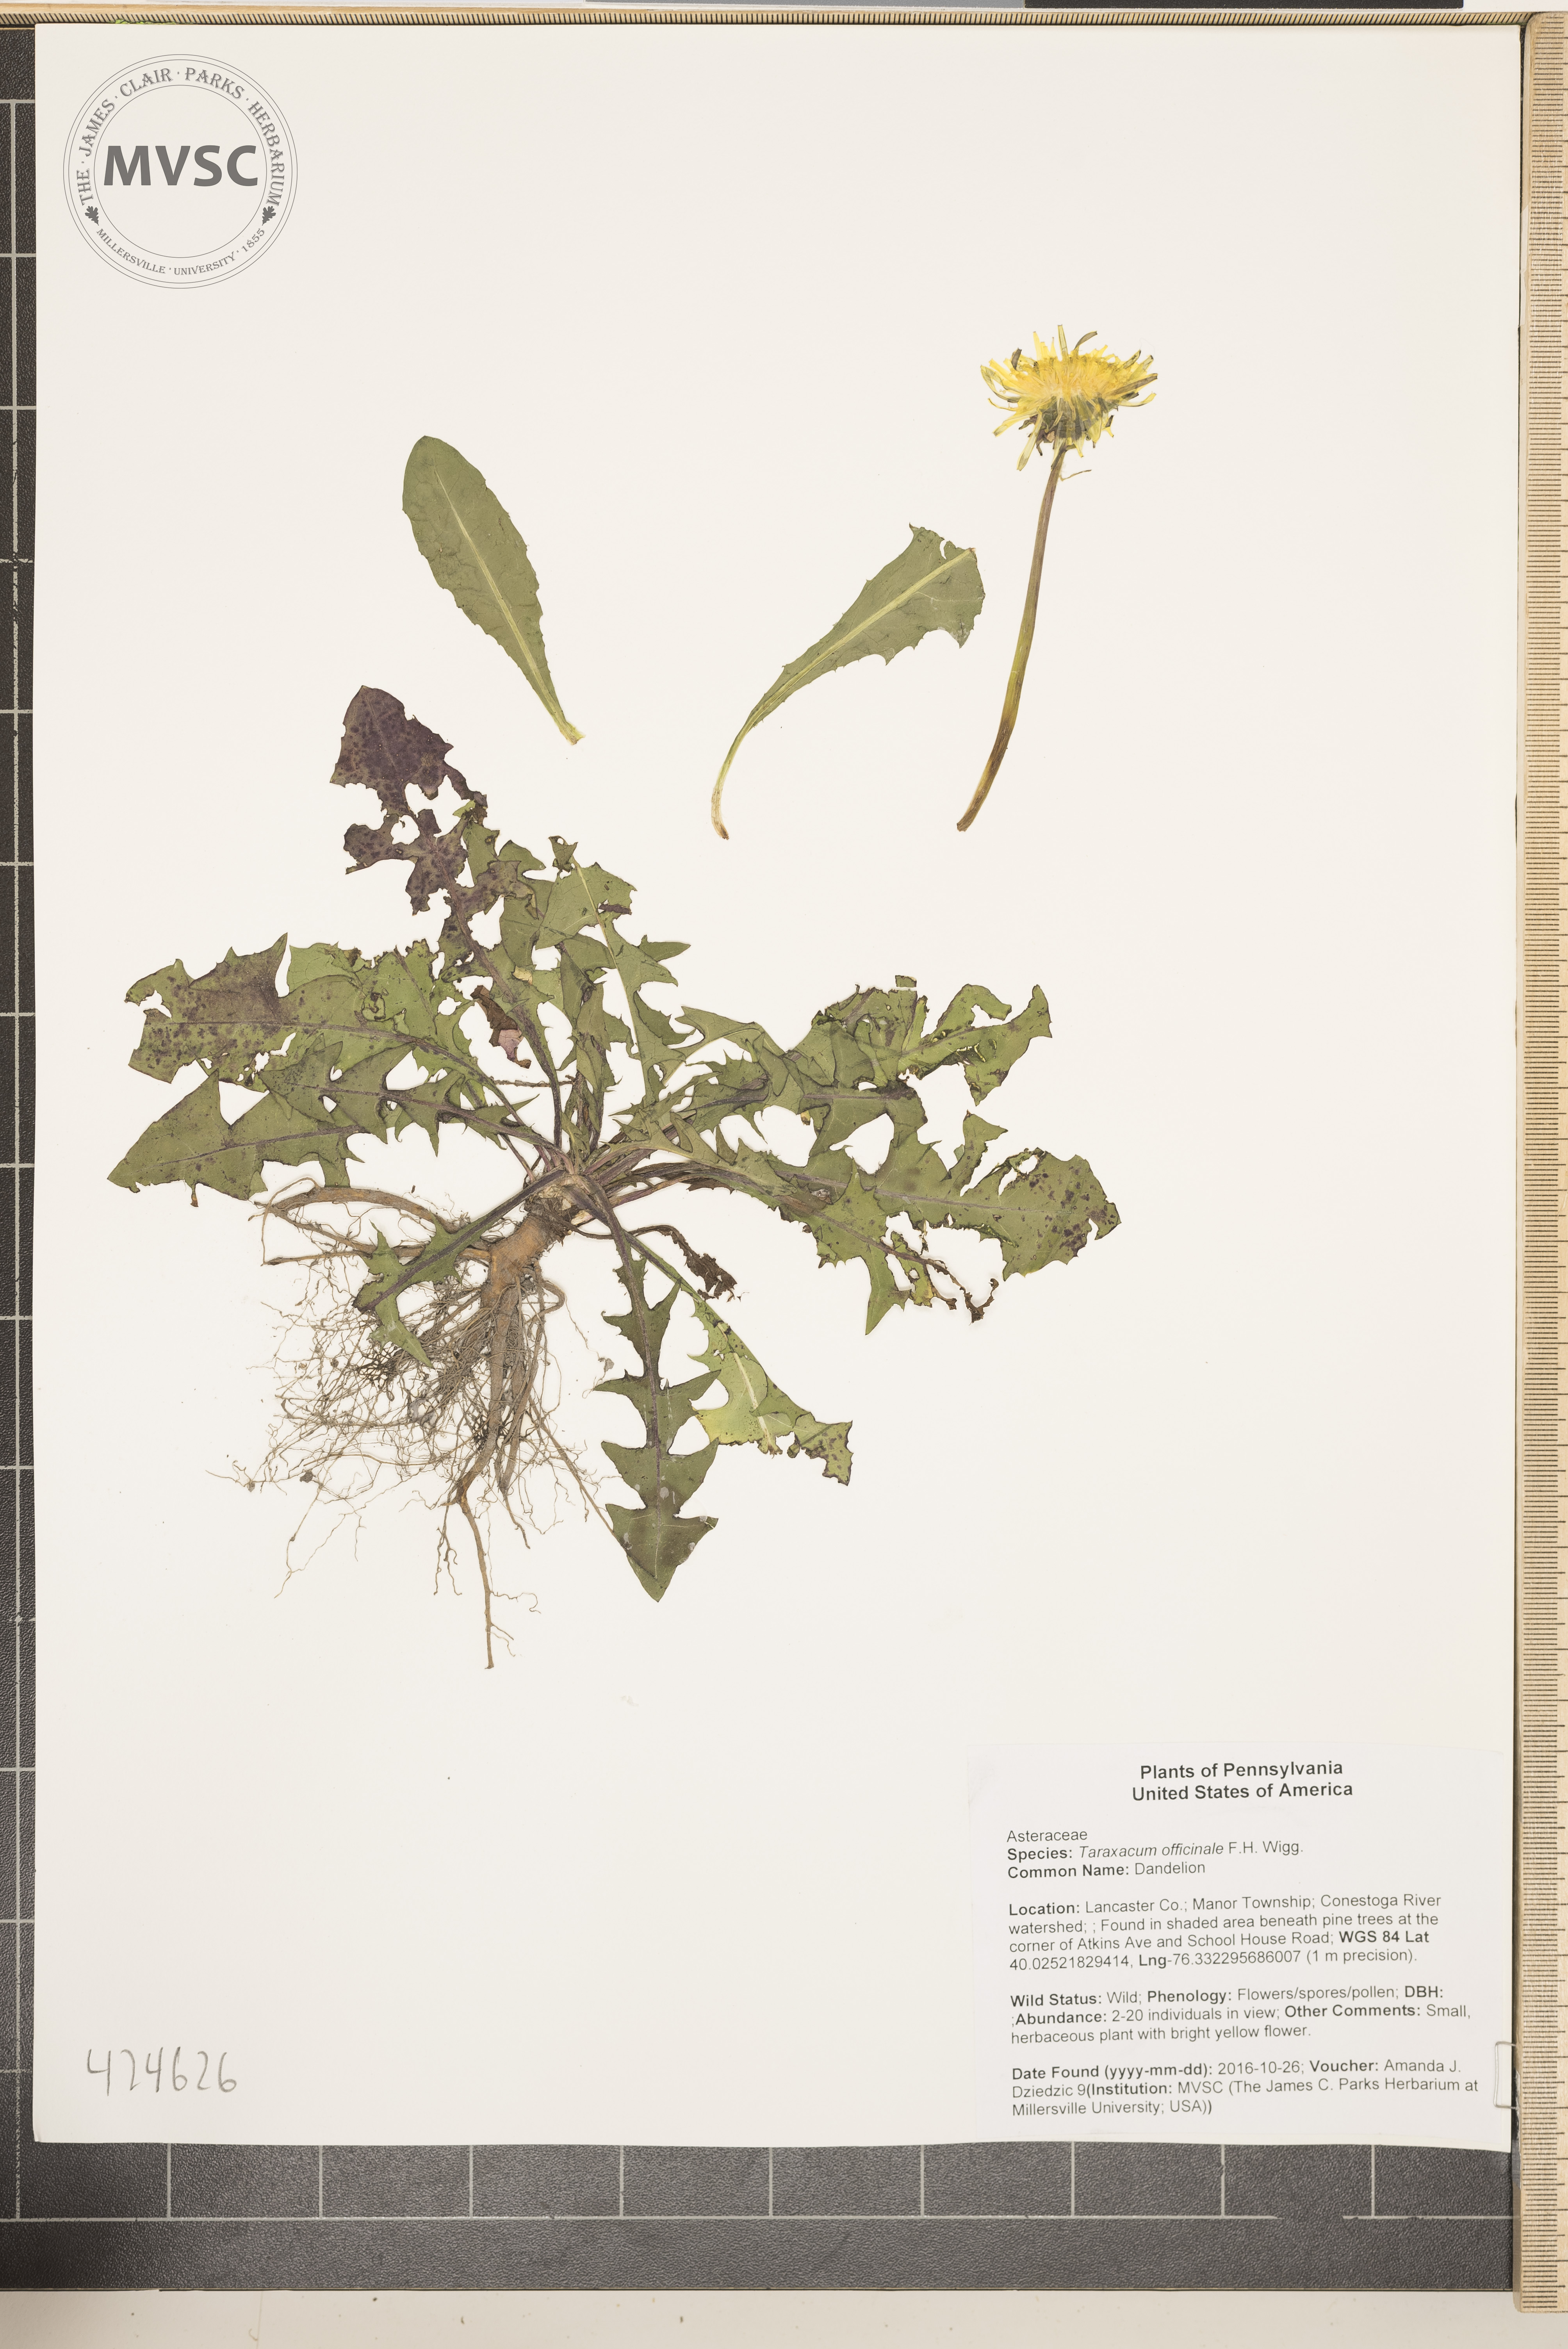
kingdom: Plantae
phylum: Tracheophyta
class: Magnoliopsida
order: Asterales
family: Asteraceae
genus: Taraxacum
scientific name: Taraxacum officinale
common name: Dandelion
